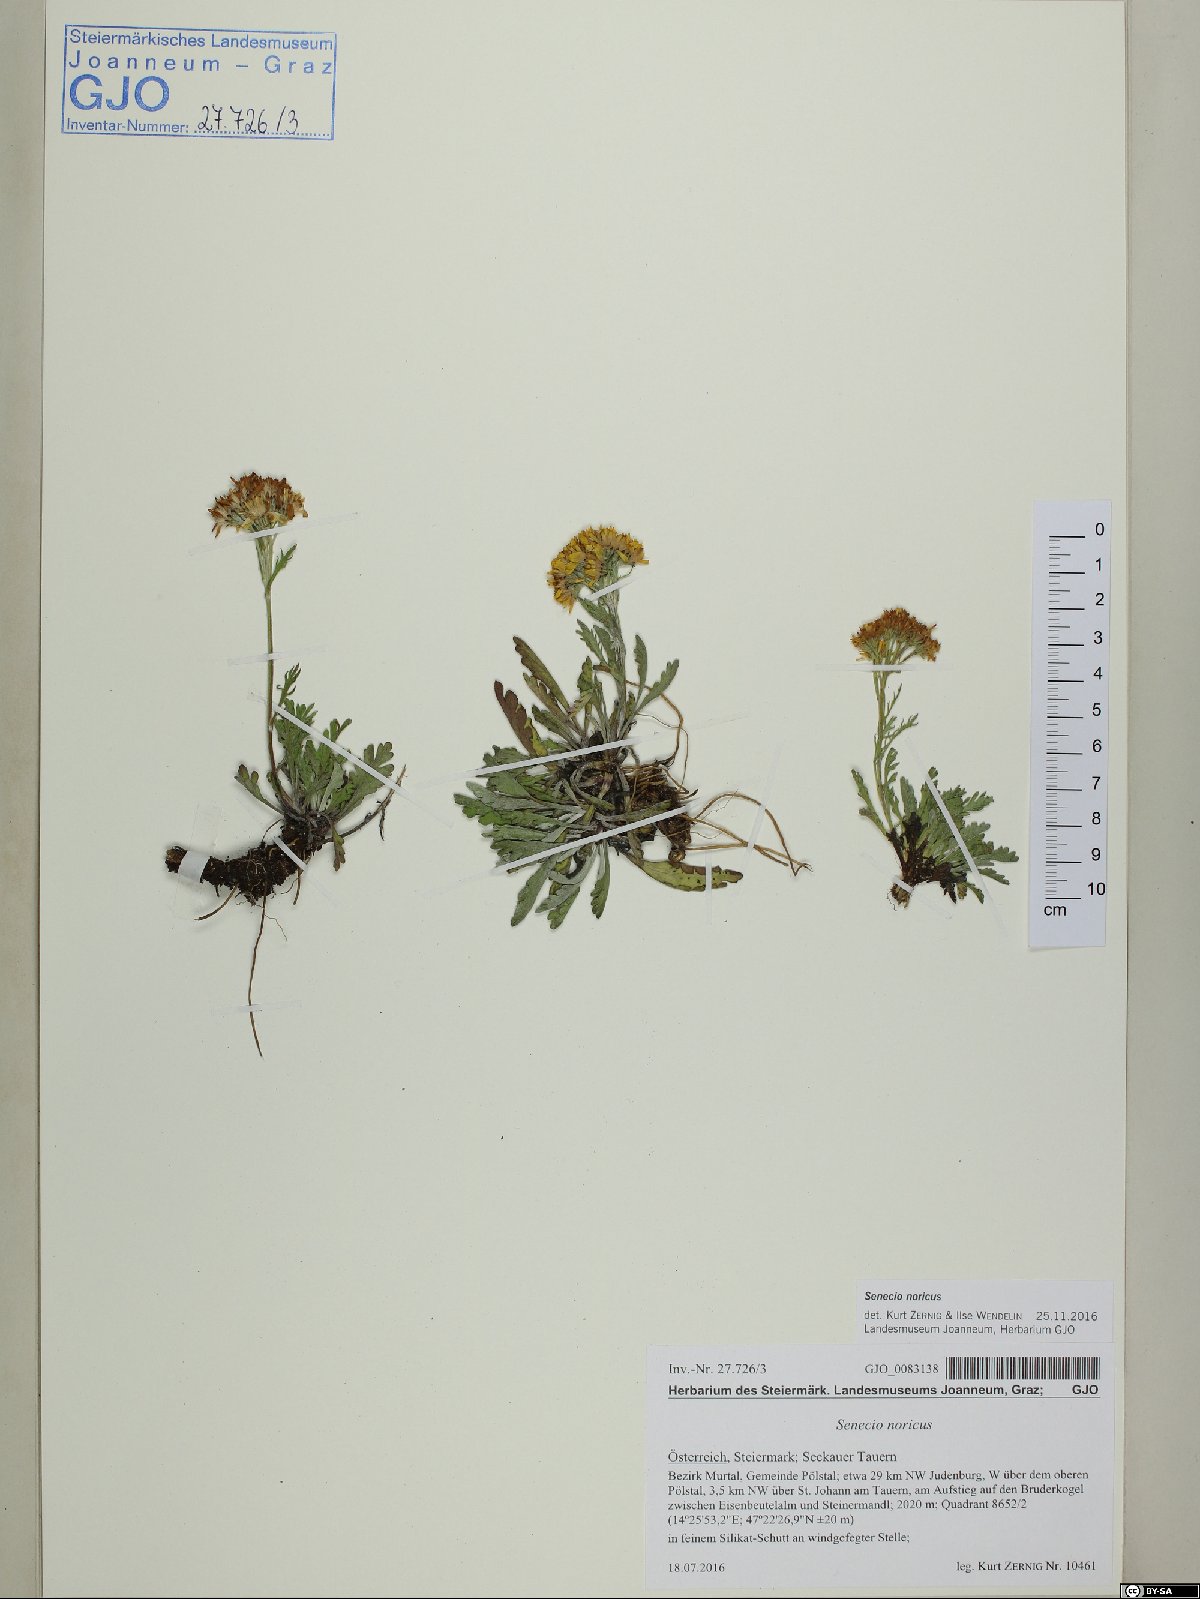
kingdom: Plantae
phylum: Tracheophyta
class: Magnoliopsida
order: Asterales
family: Asteraceae
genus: Jacobaea
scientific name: Jacobaea norica
